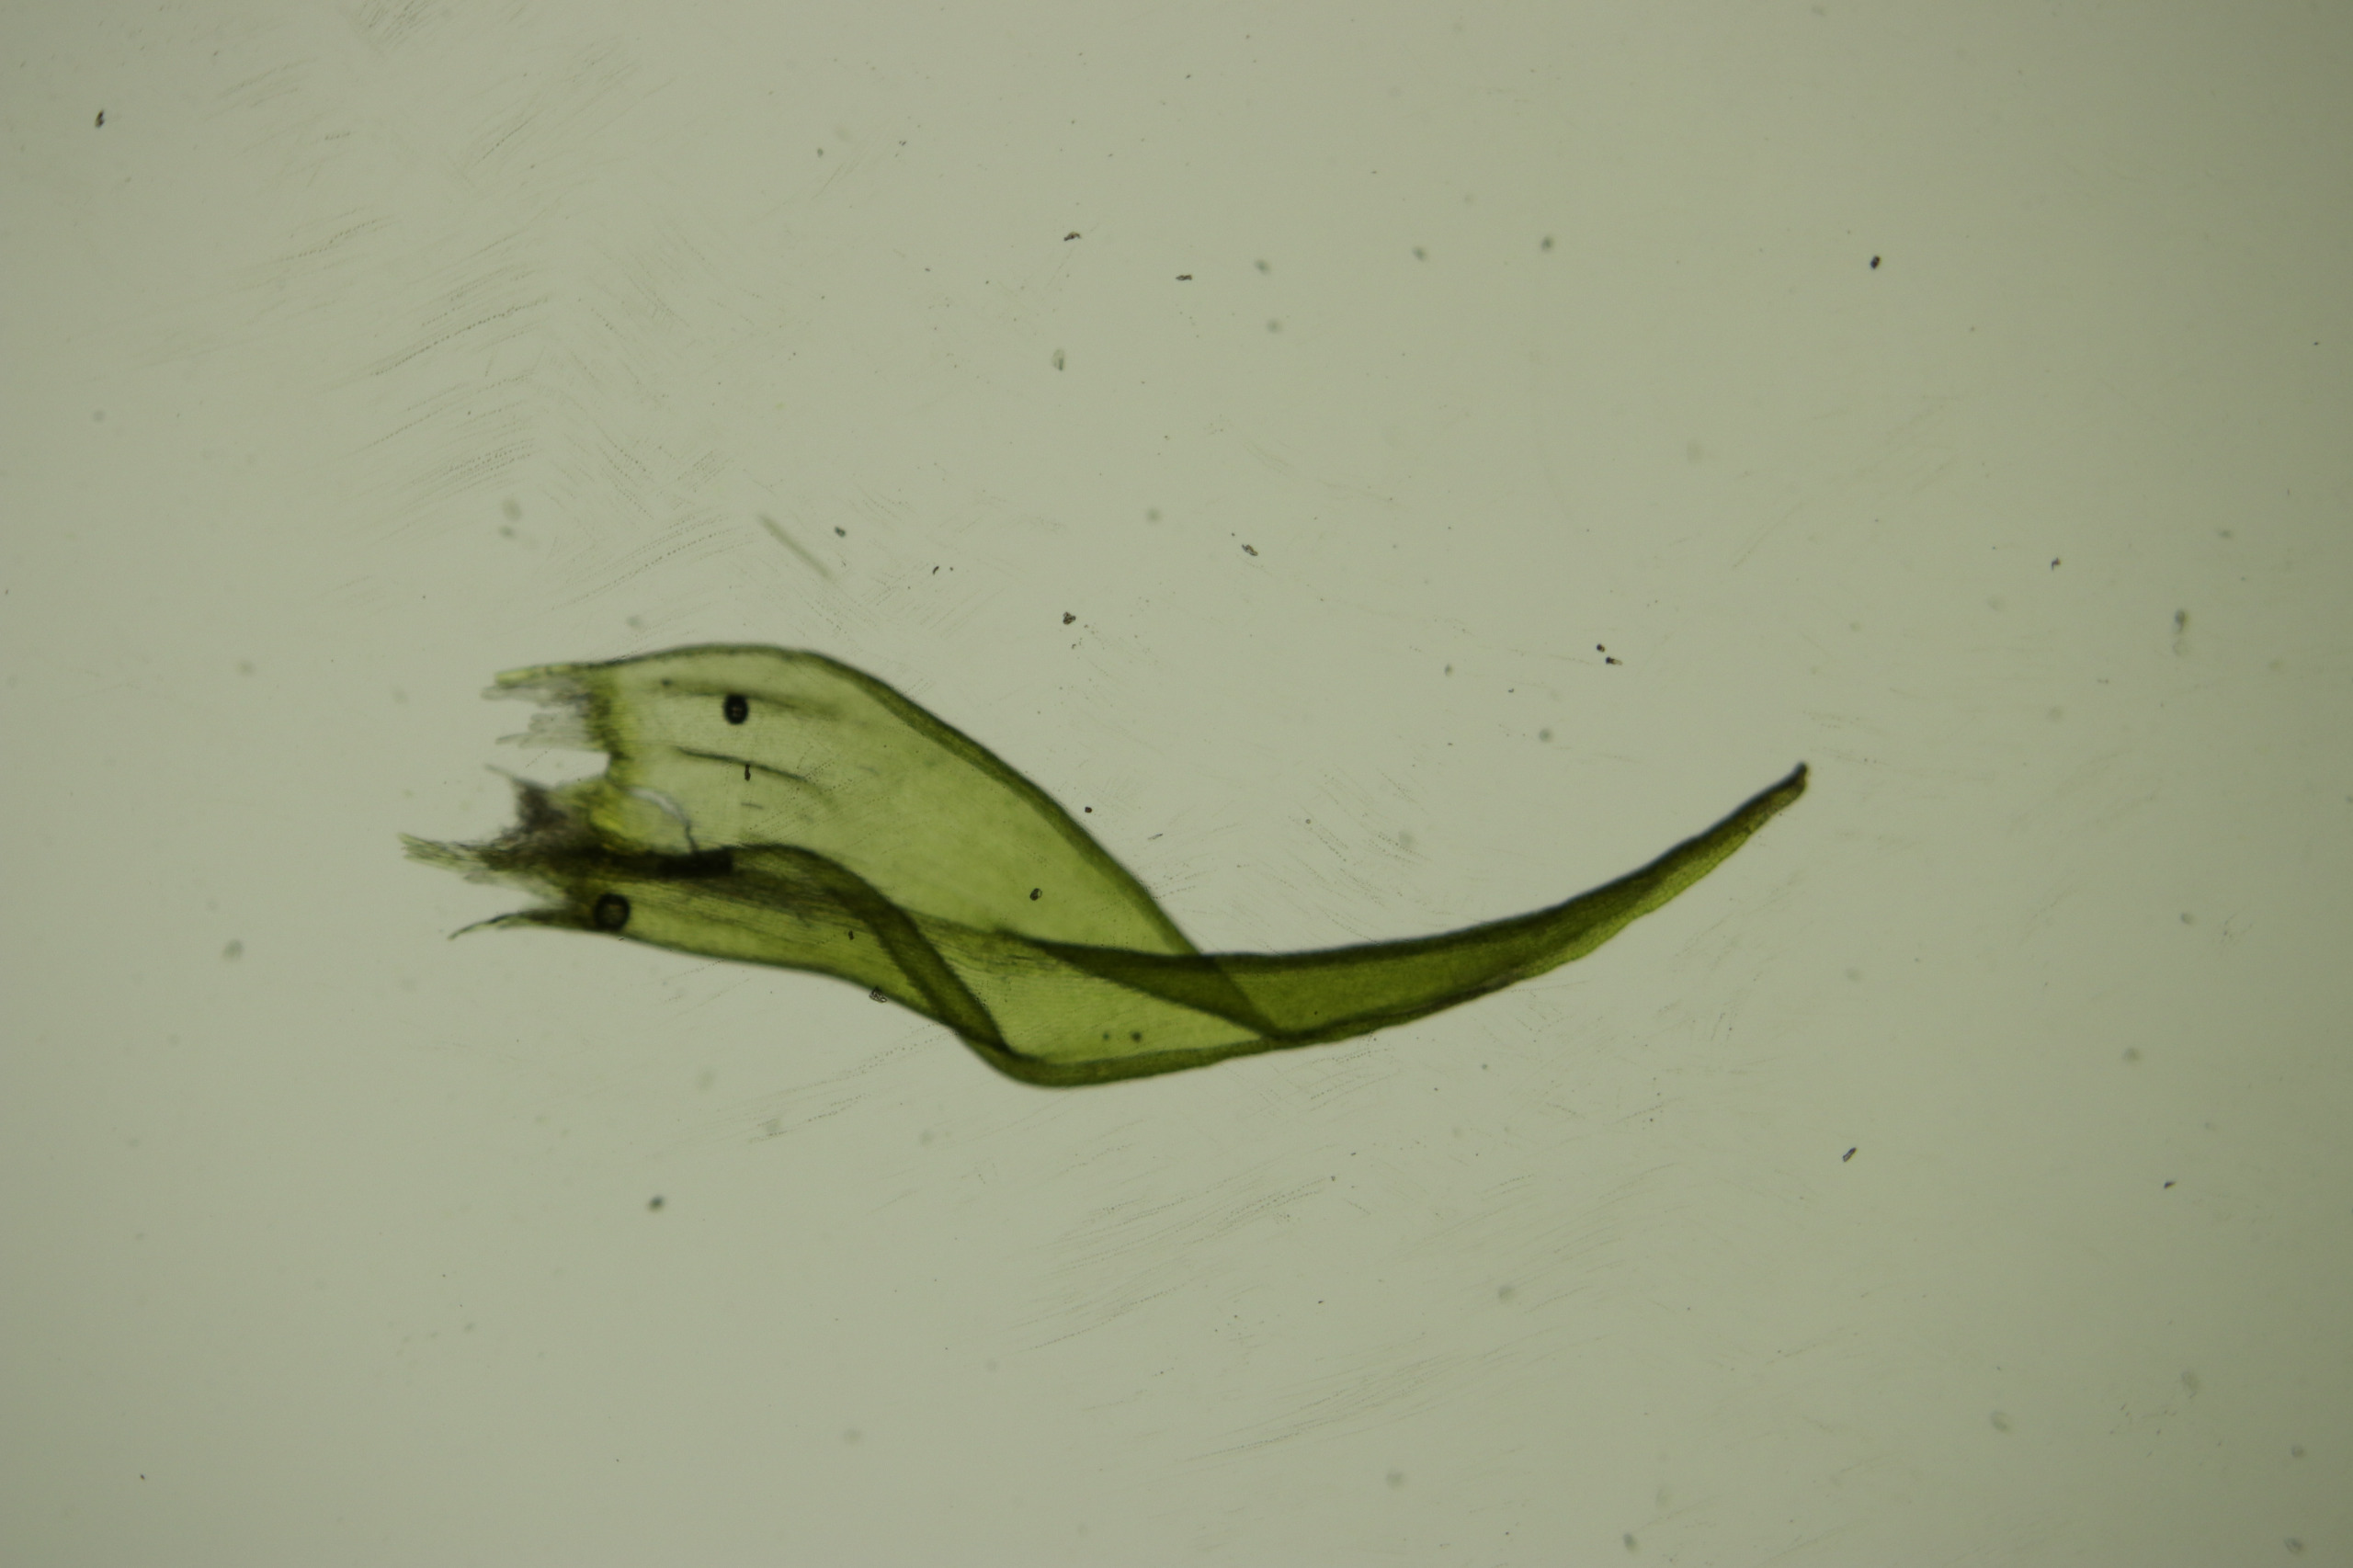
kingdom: Plantae
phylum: Bryophyta
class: Bryopsida
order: Grimmiales
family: Grimmiaceae
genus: Dilutineuron
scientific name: Dilutineuron fasciculare
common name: Knippe-børstemos
